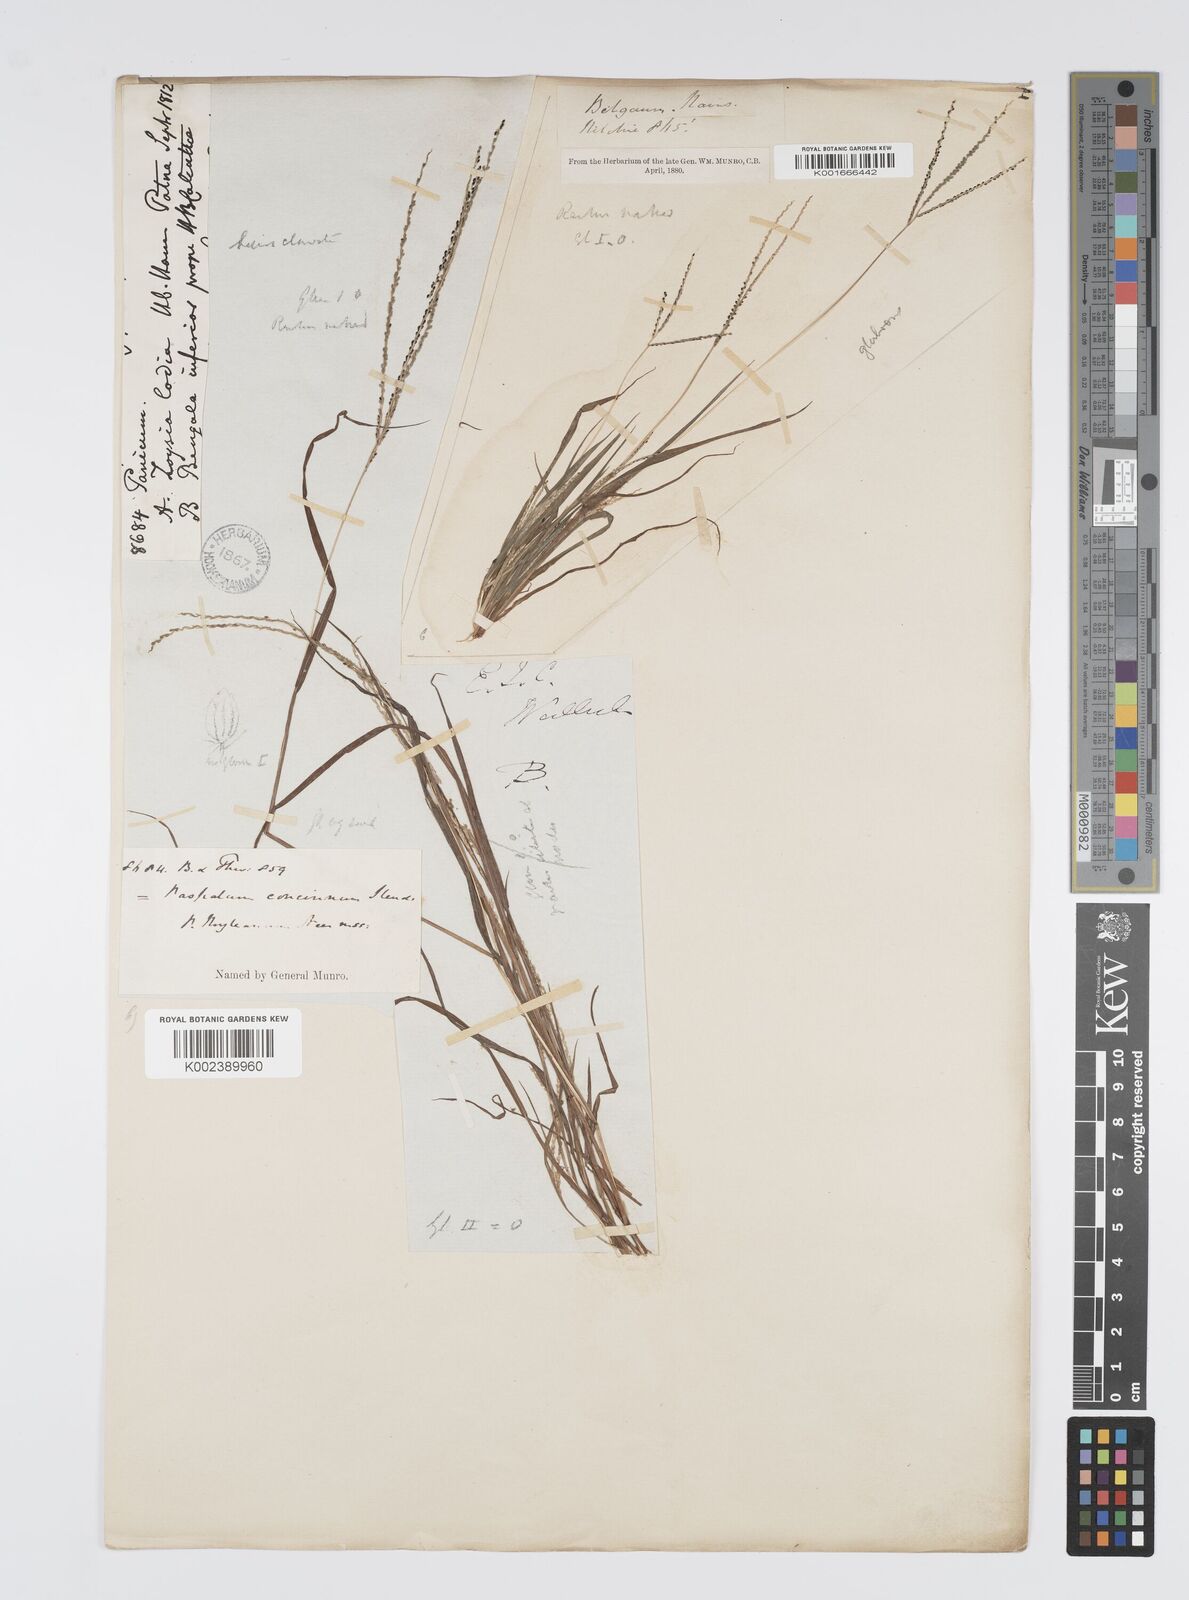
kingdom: Plantae
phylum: Tracheophyta
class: Liliopsida
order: Poales
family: Poaceae
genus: Digitaria
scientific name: Digitaria stricta
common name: Crabgrass
